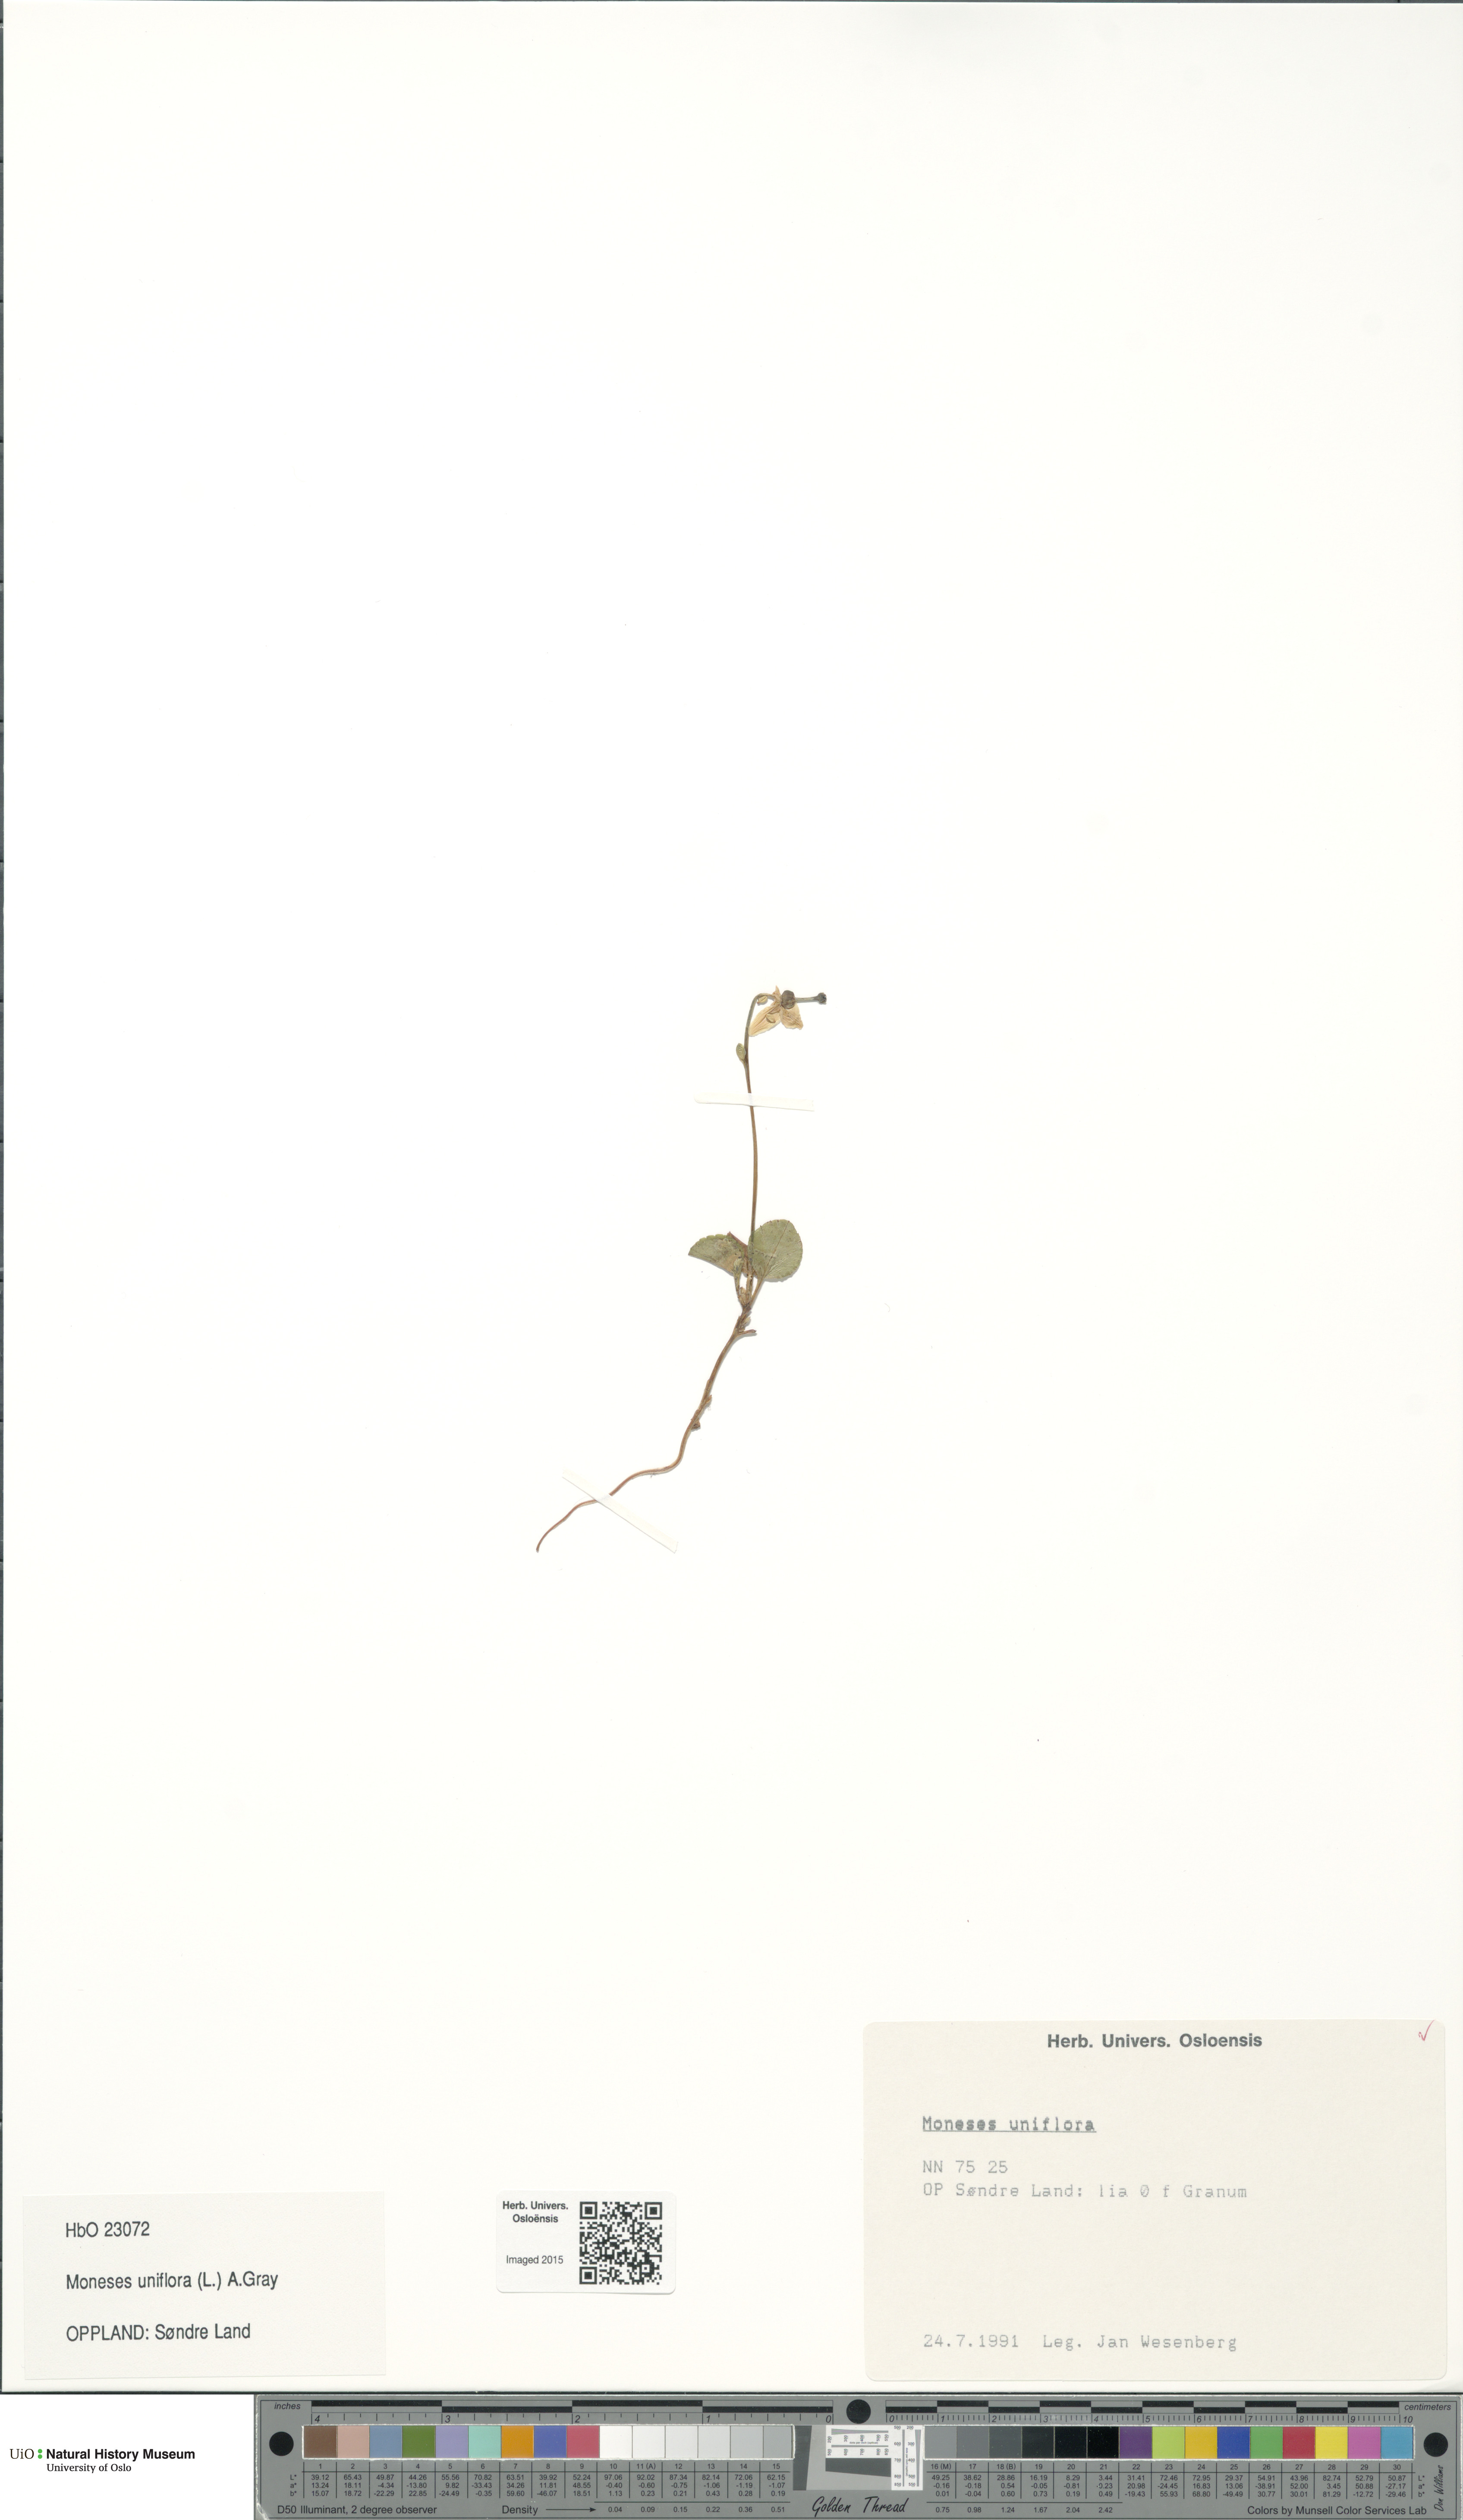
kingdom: Plantae
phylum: Tracheophyta
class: Magnoliopsida
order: Ericales
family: Ericaceae
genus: Moneses
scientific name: Moneses uniflora
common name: One-flowered wintergreen
